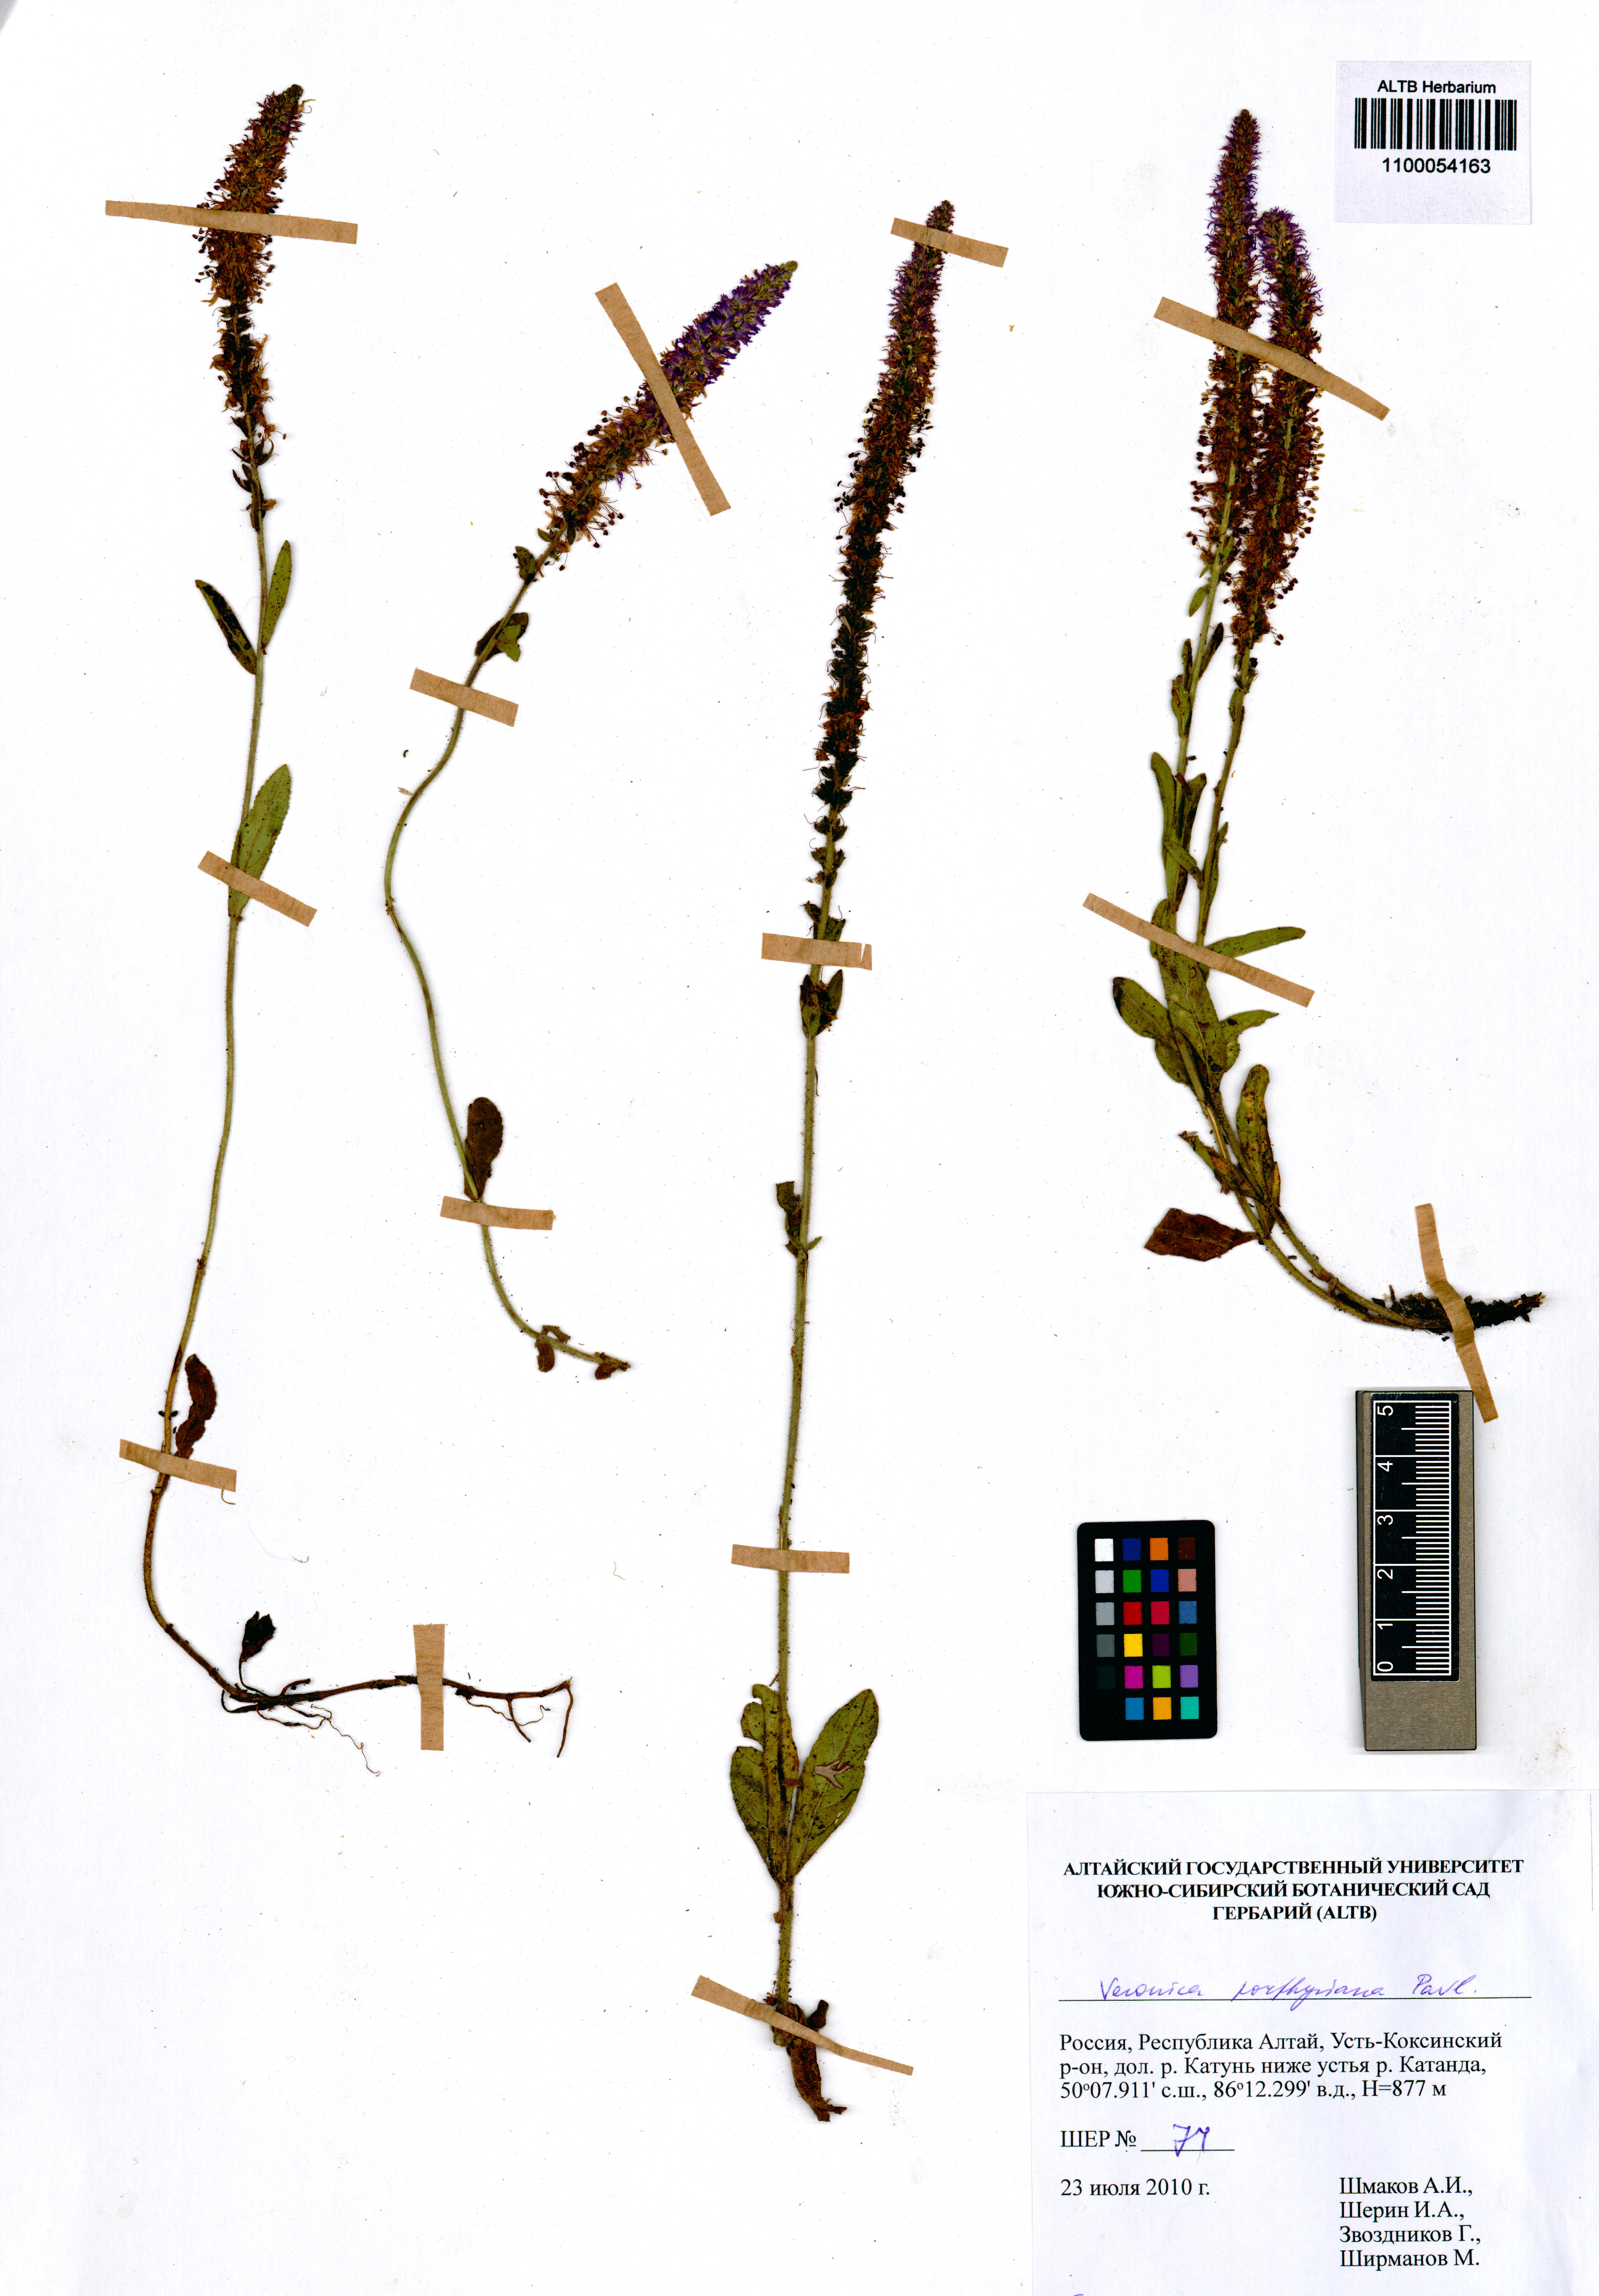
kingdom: Plantae
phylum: Tracheophyta
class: Magnoliopsida
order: Lamiales
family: Plantaginaceae
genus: Veronica
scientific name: Veronica porphyriana
